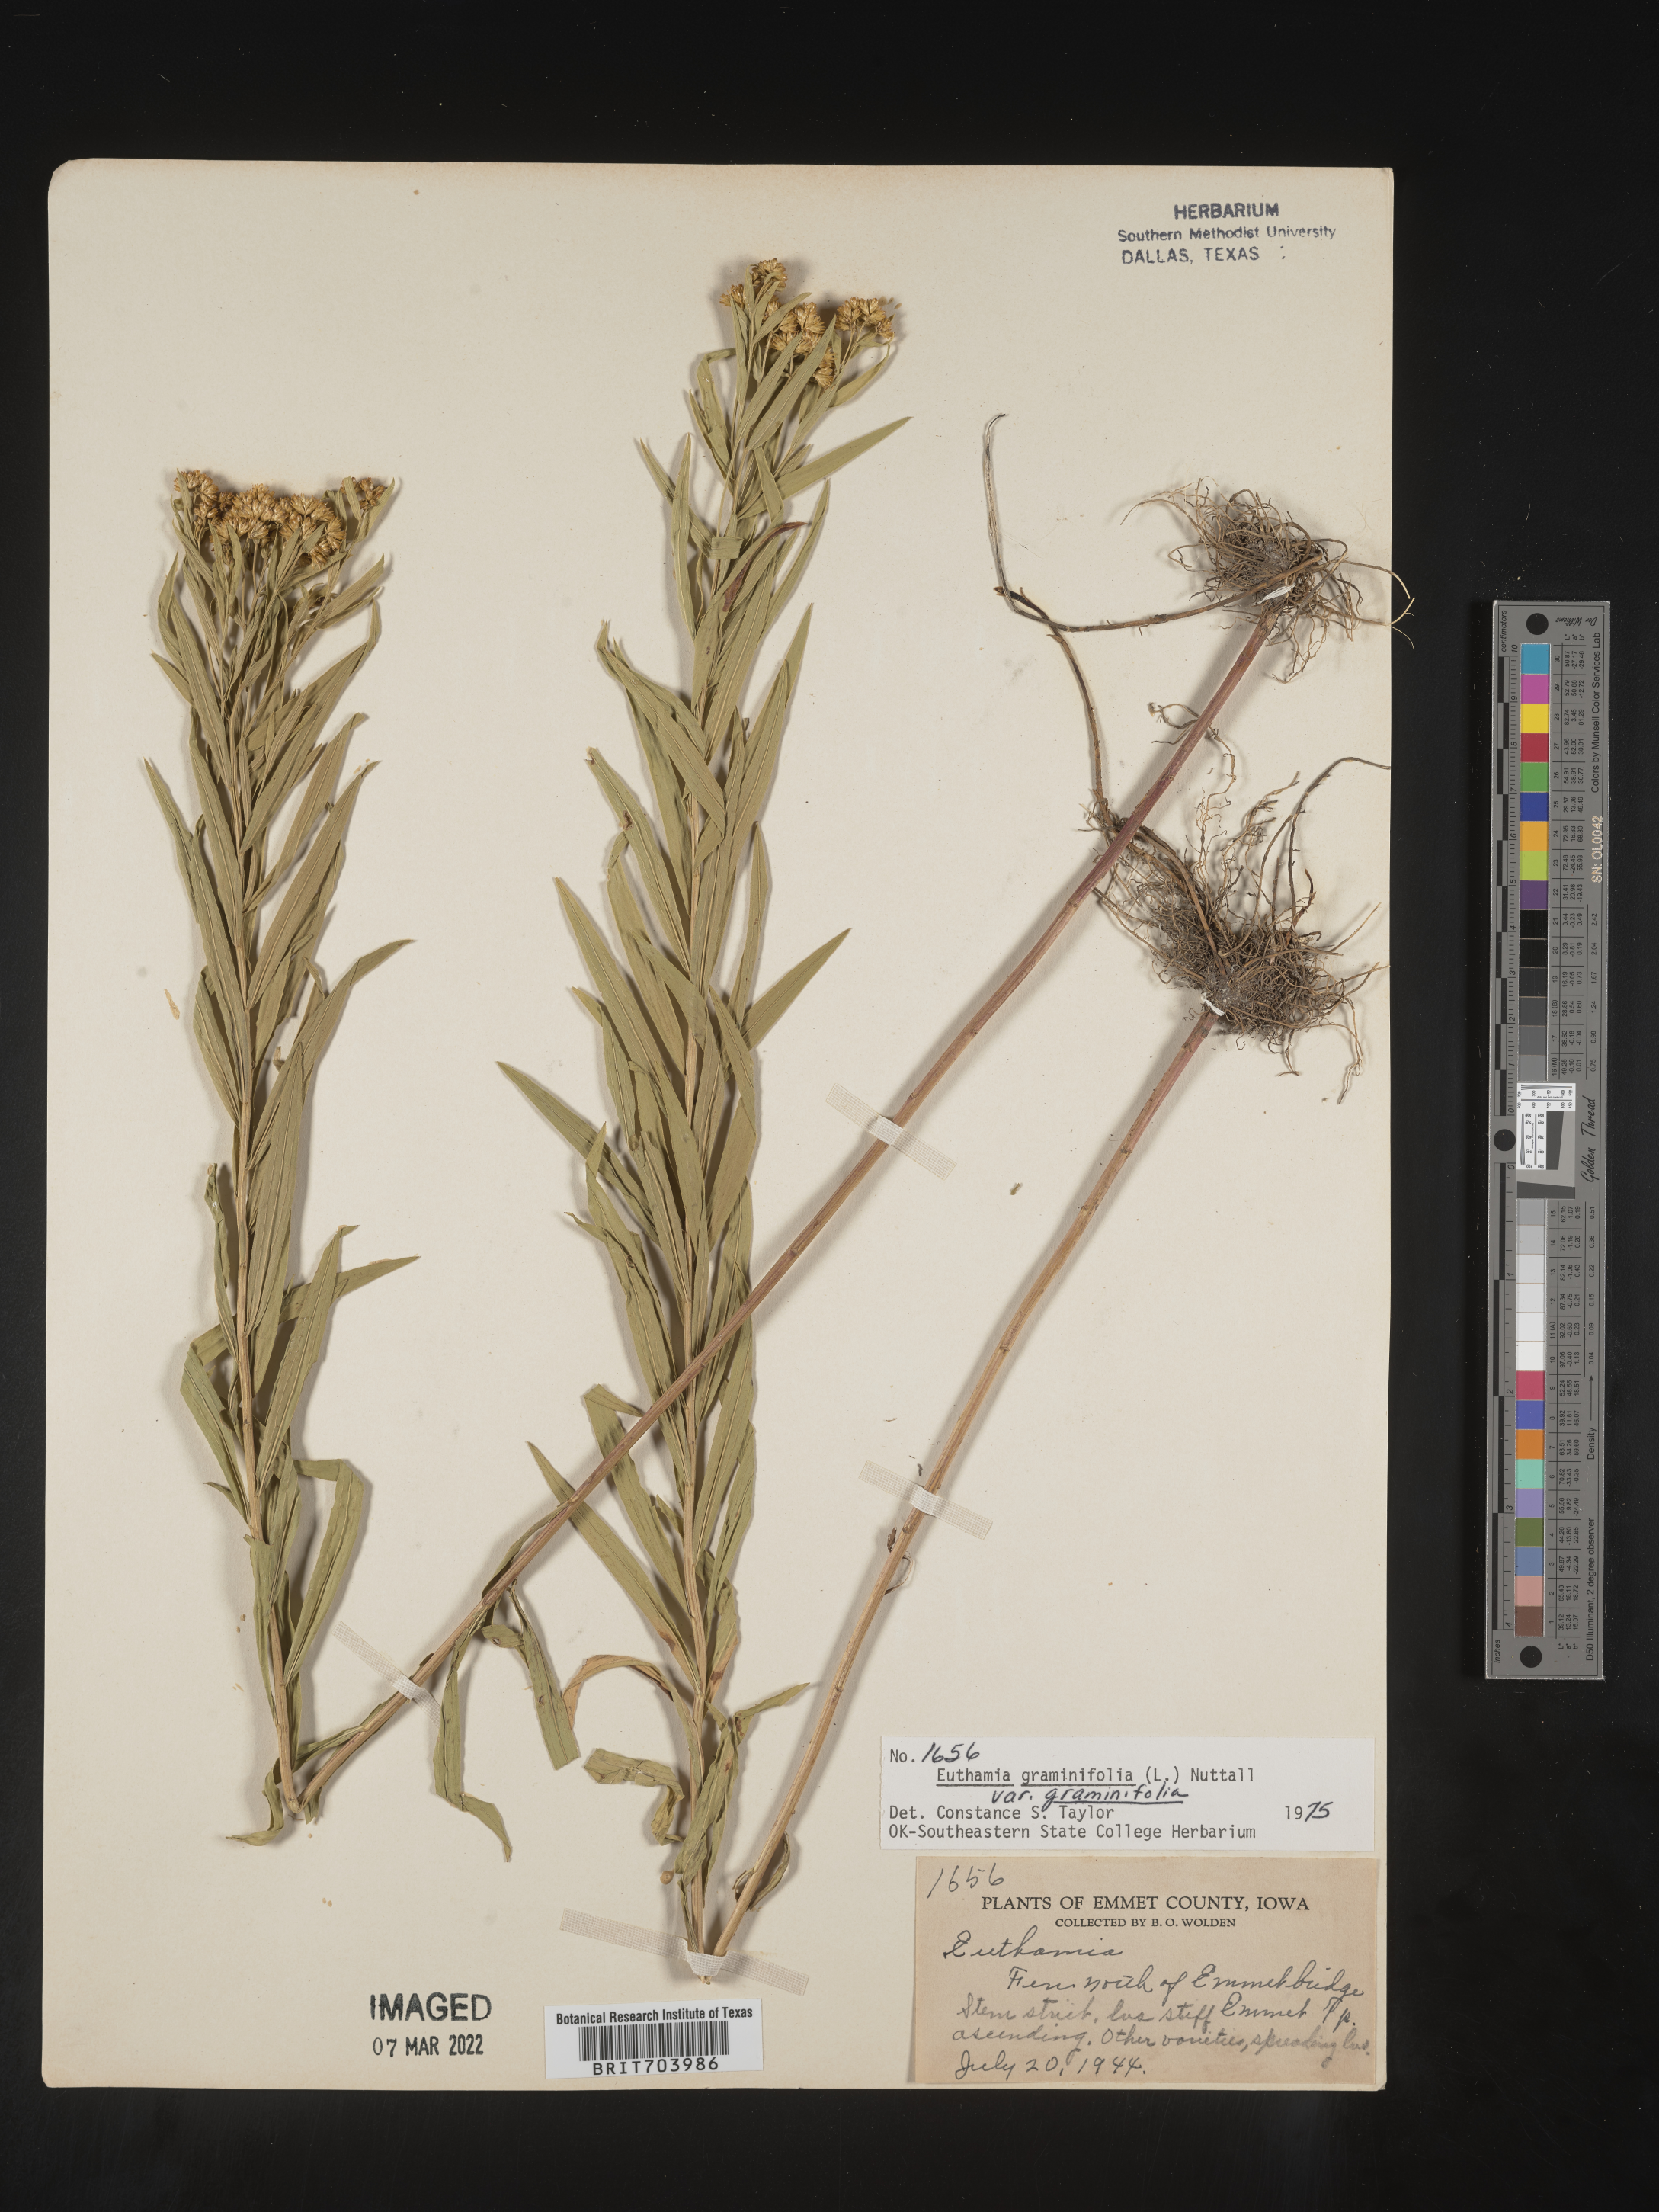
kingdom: Plantae
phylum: Tracheophyta
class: Magnoliopsida
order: Asterales
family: Asteraceae
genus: Euthamia
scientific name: Euthamia graminifolia
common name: Common goldentop
